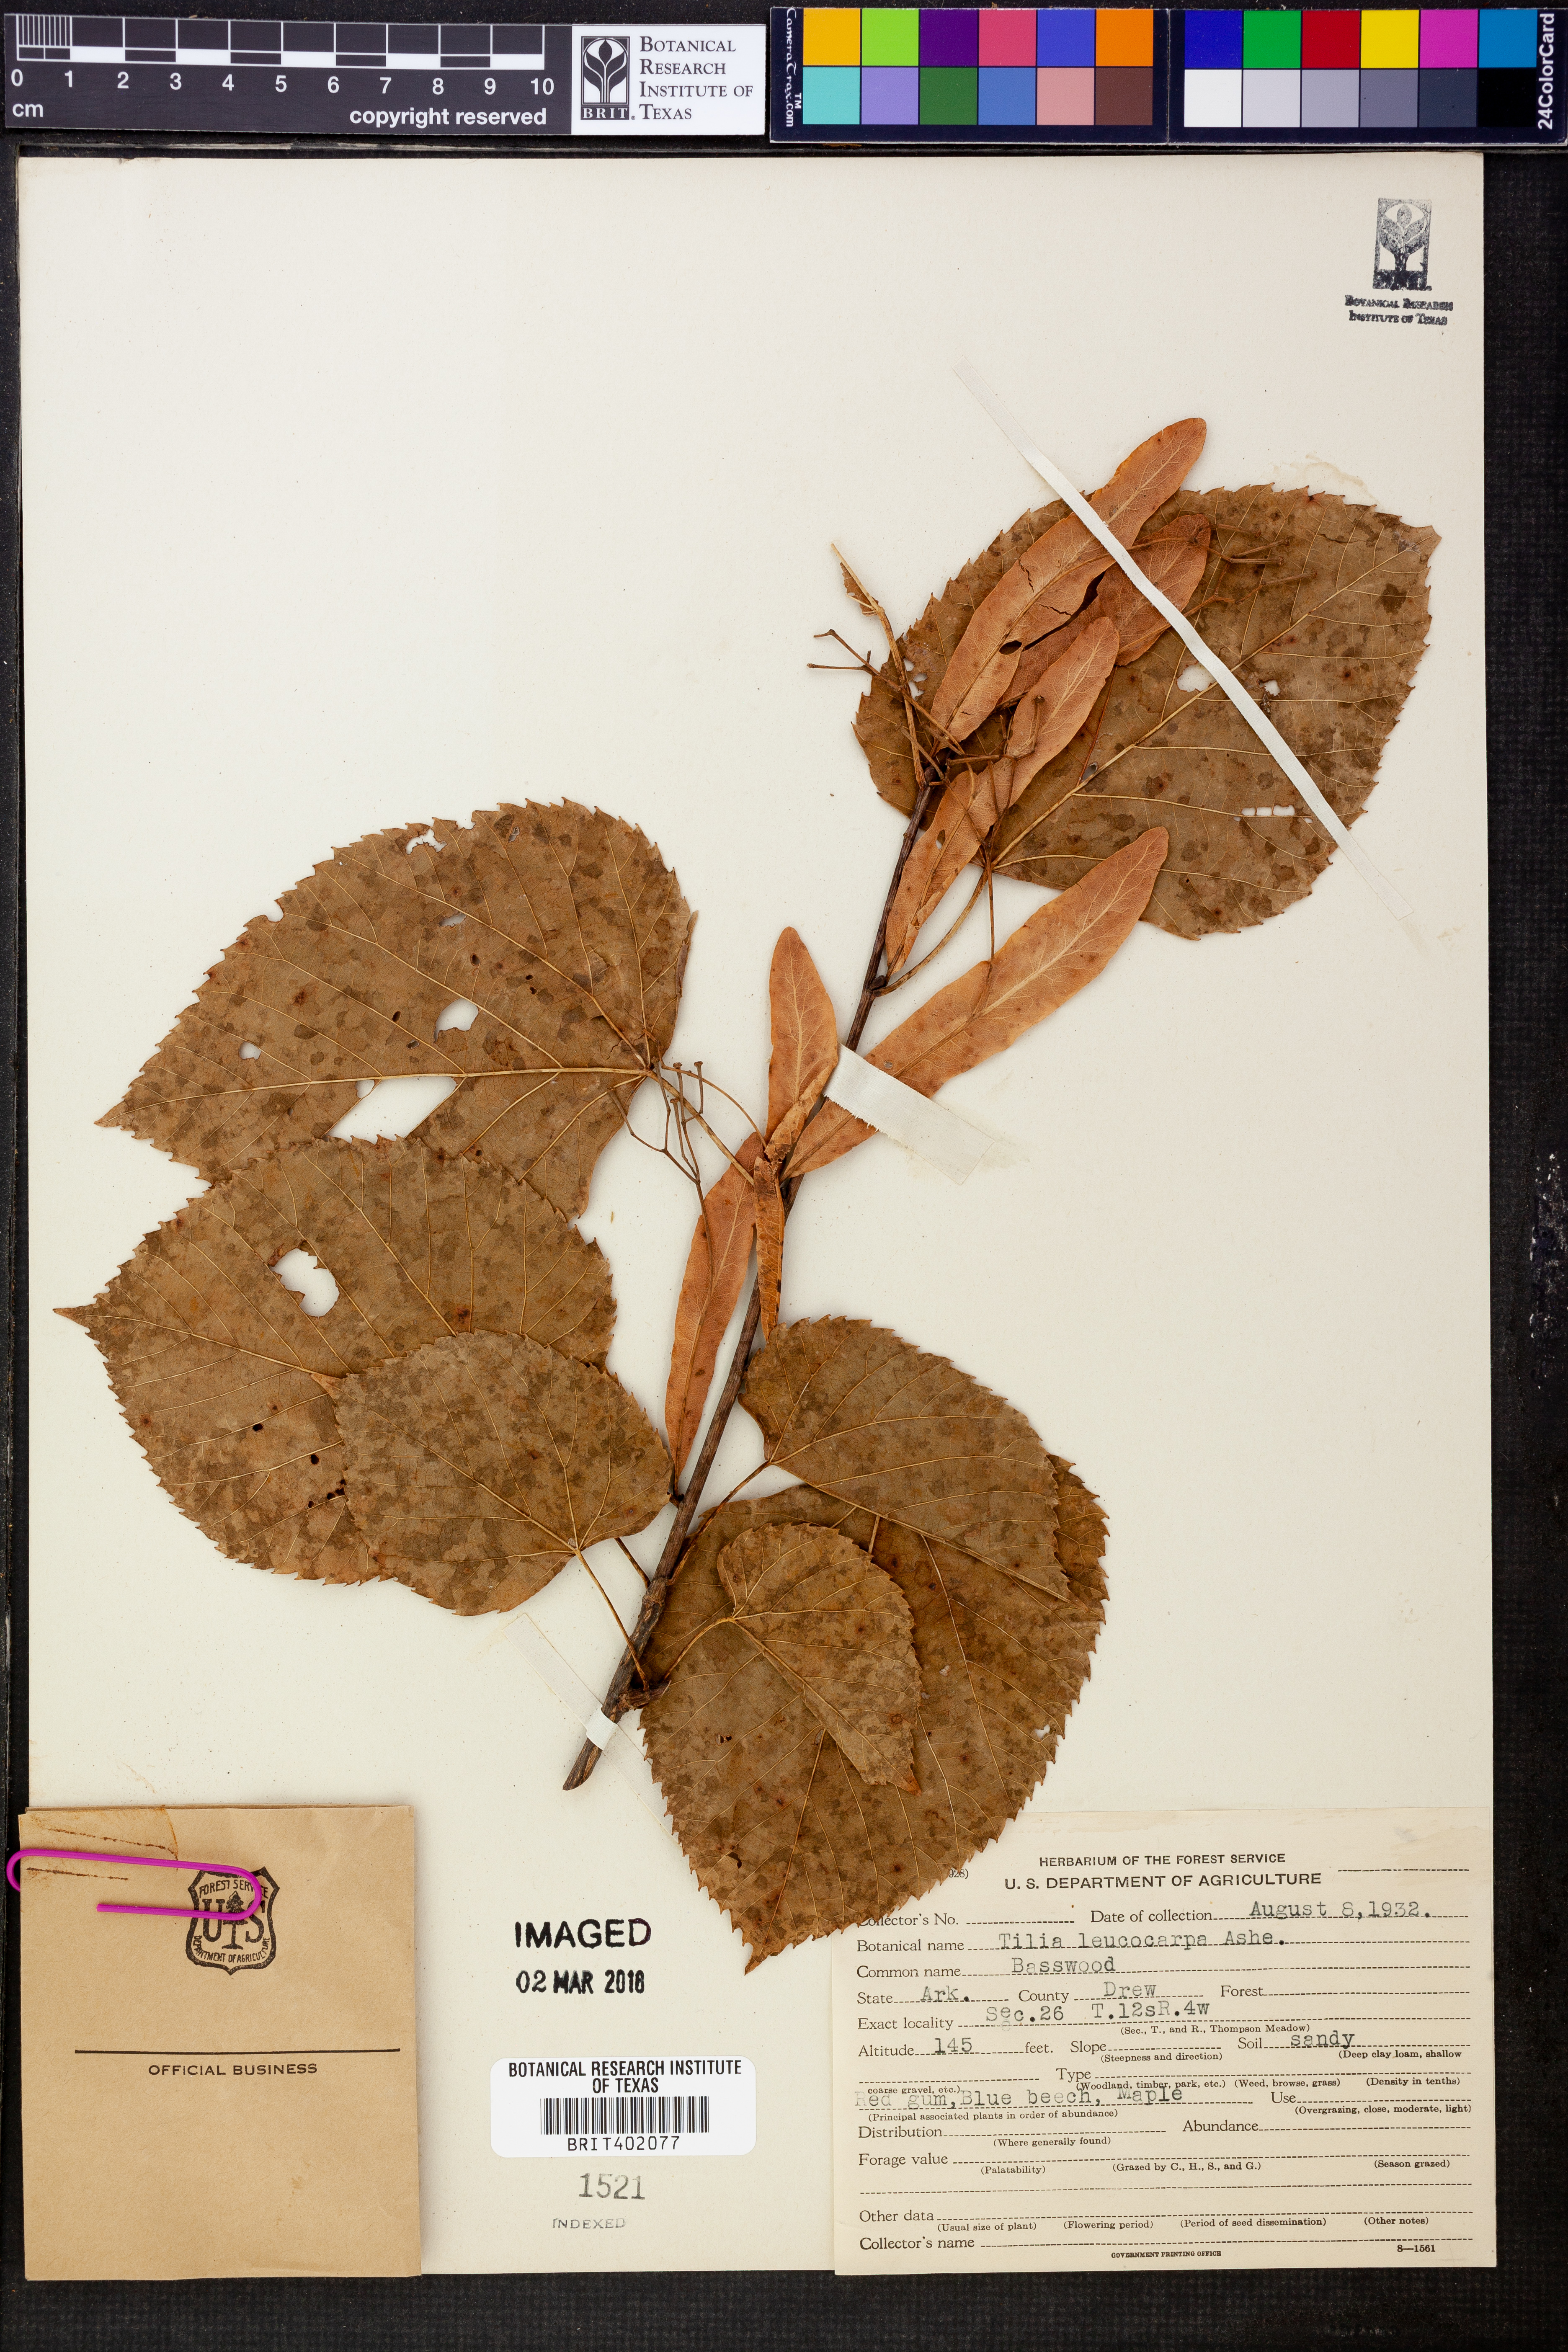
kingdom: Plantae
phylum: Tracheophyta
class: Magnoliopsida
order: Malvales
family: Malvaceae
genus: Tilia
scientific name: Tilia americana
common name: Basswood
